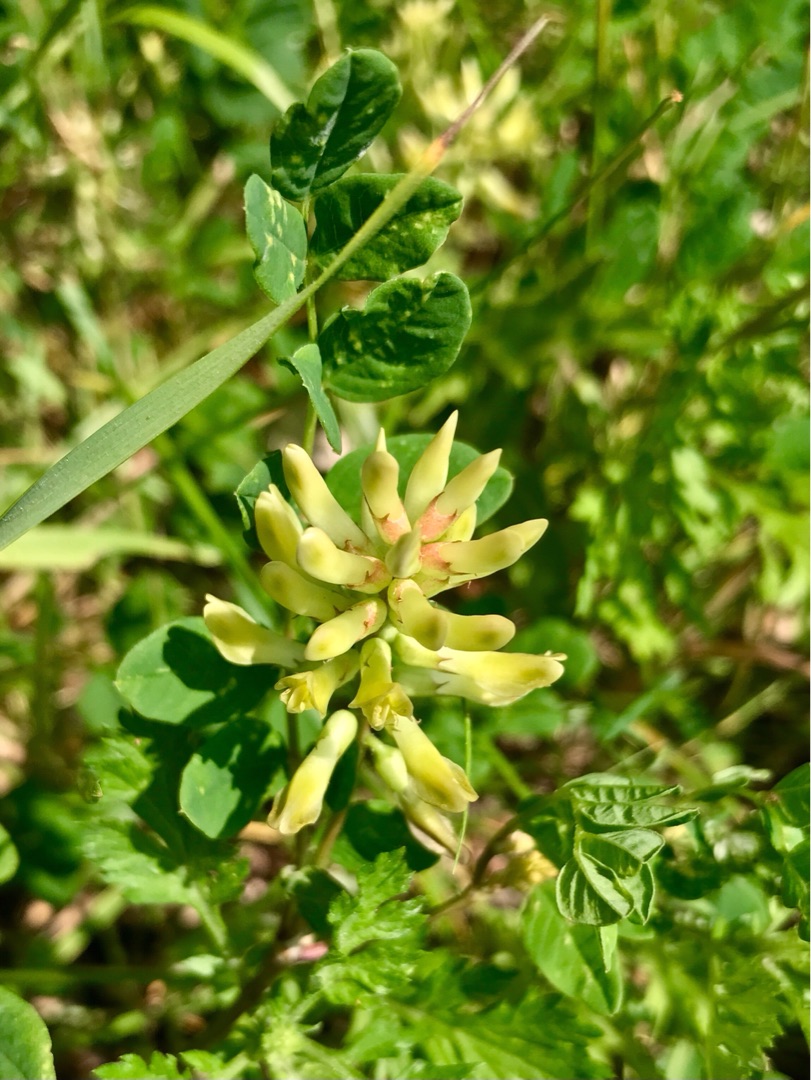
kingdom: Plantae
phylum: Tracheophyta
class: Magnoliopsida
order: Fabales
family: Fabaceae
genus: Astragalus
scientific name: Astragalus glycyphyllos
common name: Sød astragel
